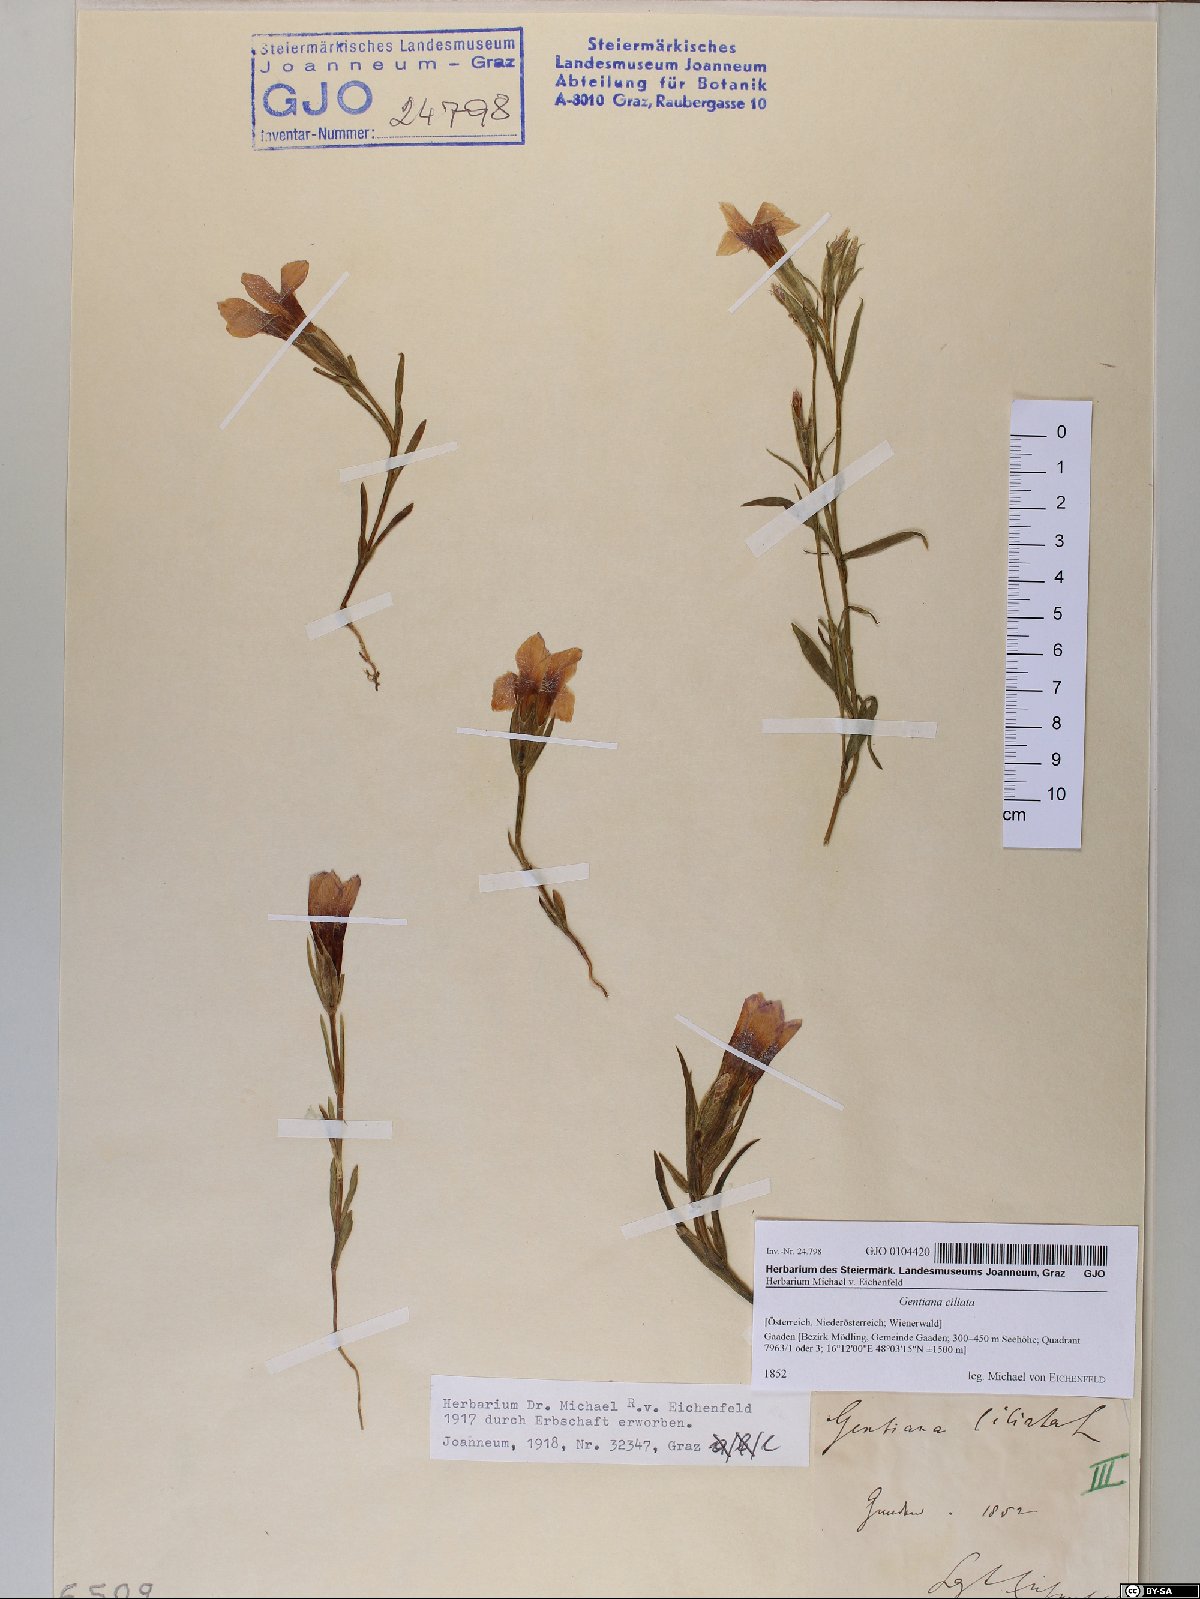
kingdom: Plantae
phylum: Tracheophyta
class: Magnoliopsida
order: Gentianales
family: Gentianaceae
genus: Gentianopsis
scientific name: Gentianopsis ciliata
